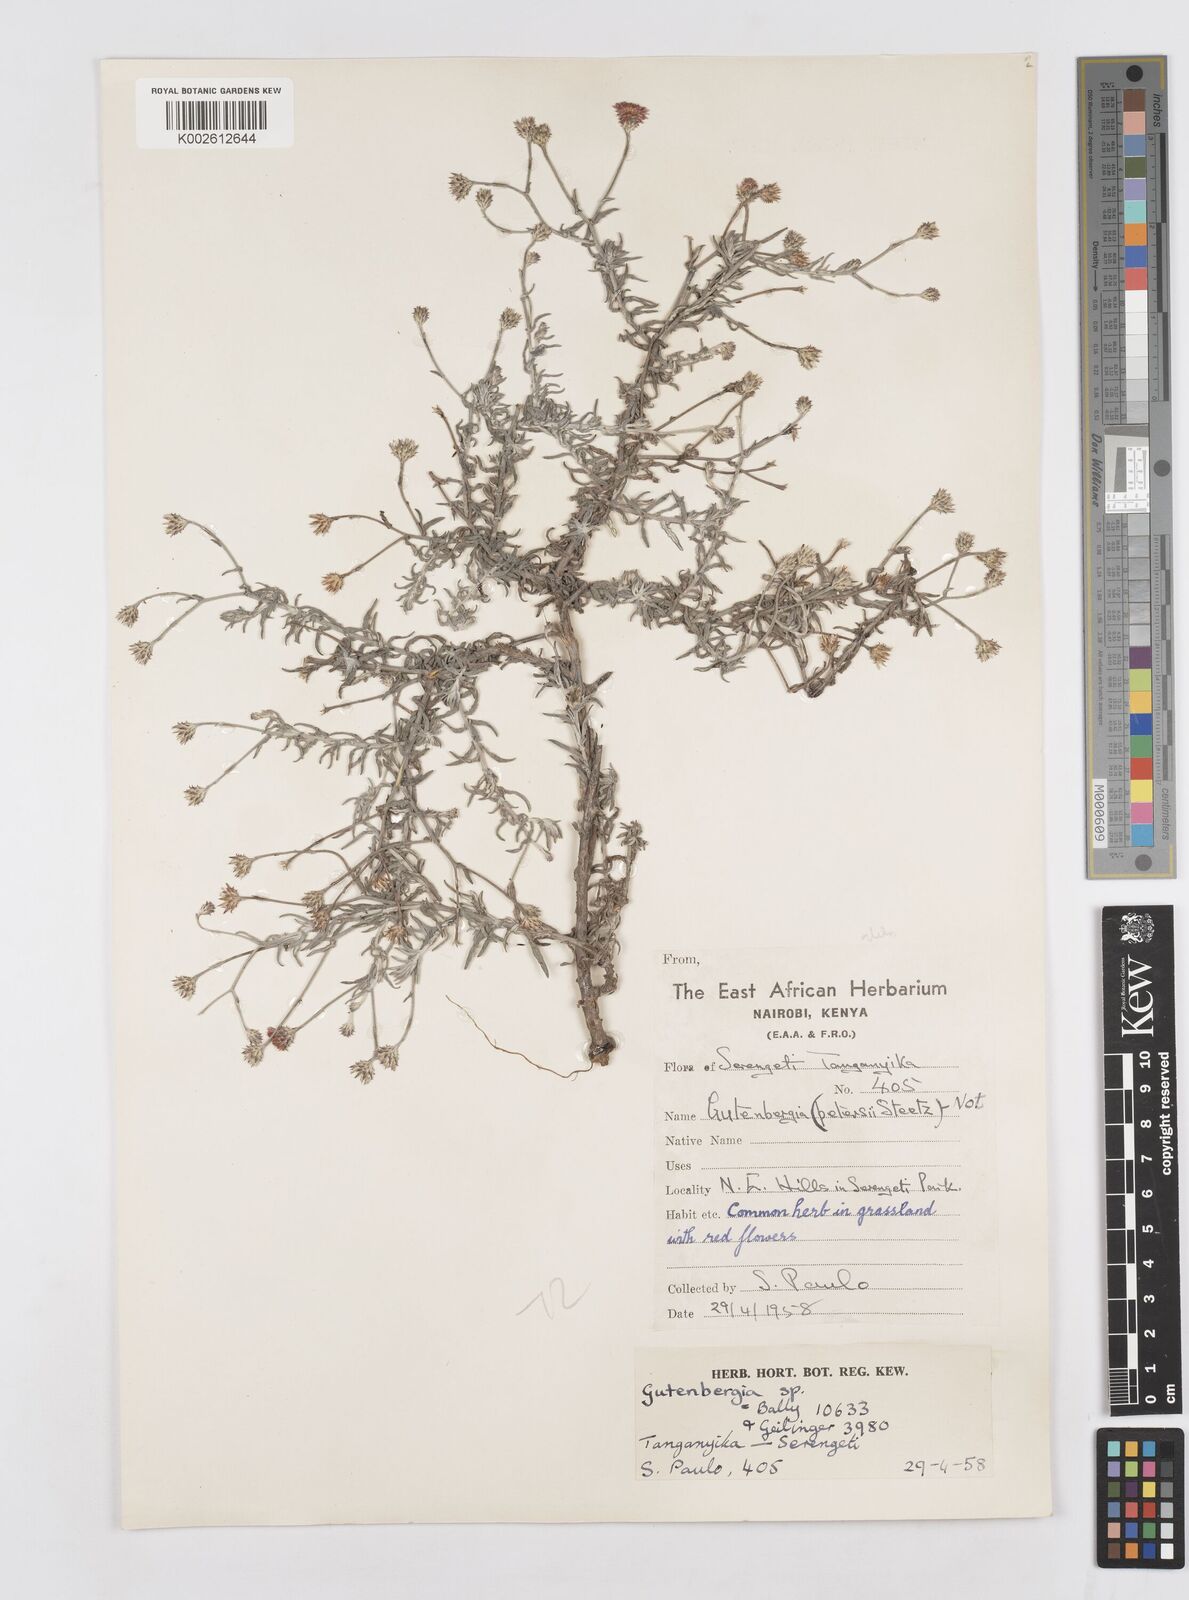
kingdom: Plantae
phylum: Tracheophyta
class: Magnoliopsida
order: Asterales
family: Asteraceae
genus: Gutenbergia
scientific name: Gutenbergia rueppellii
